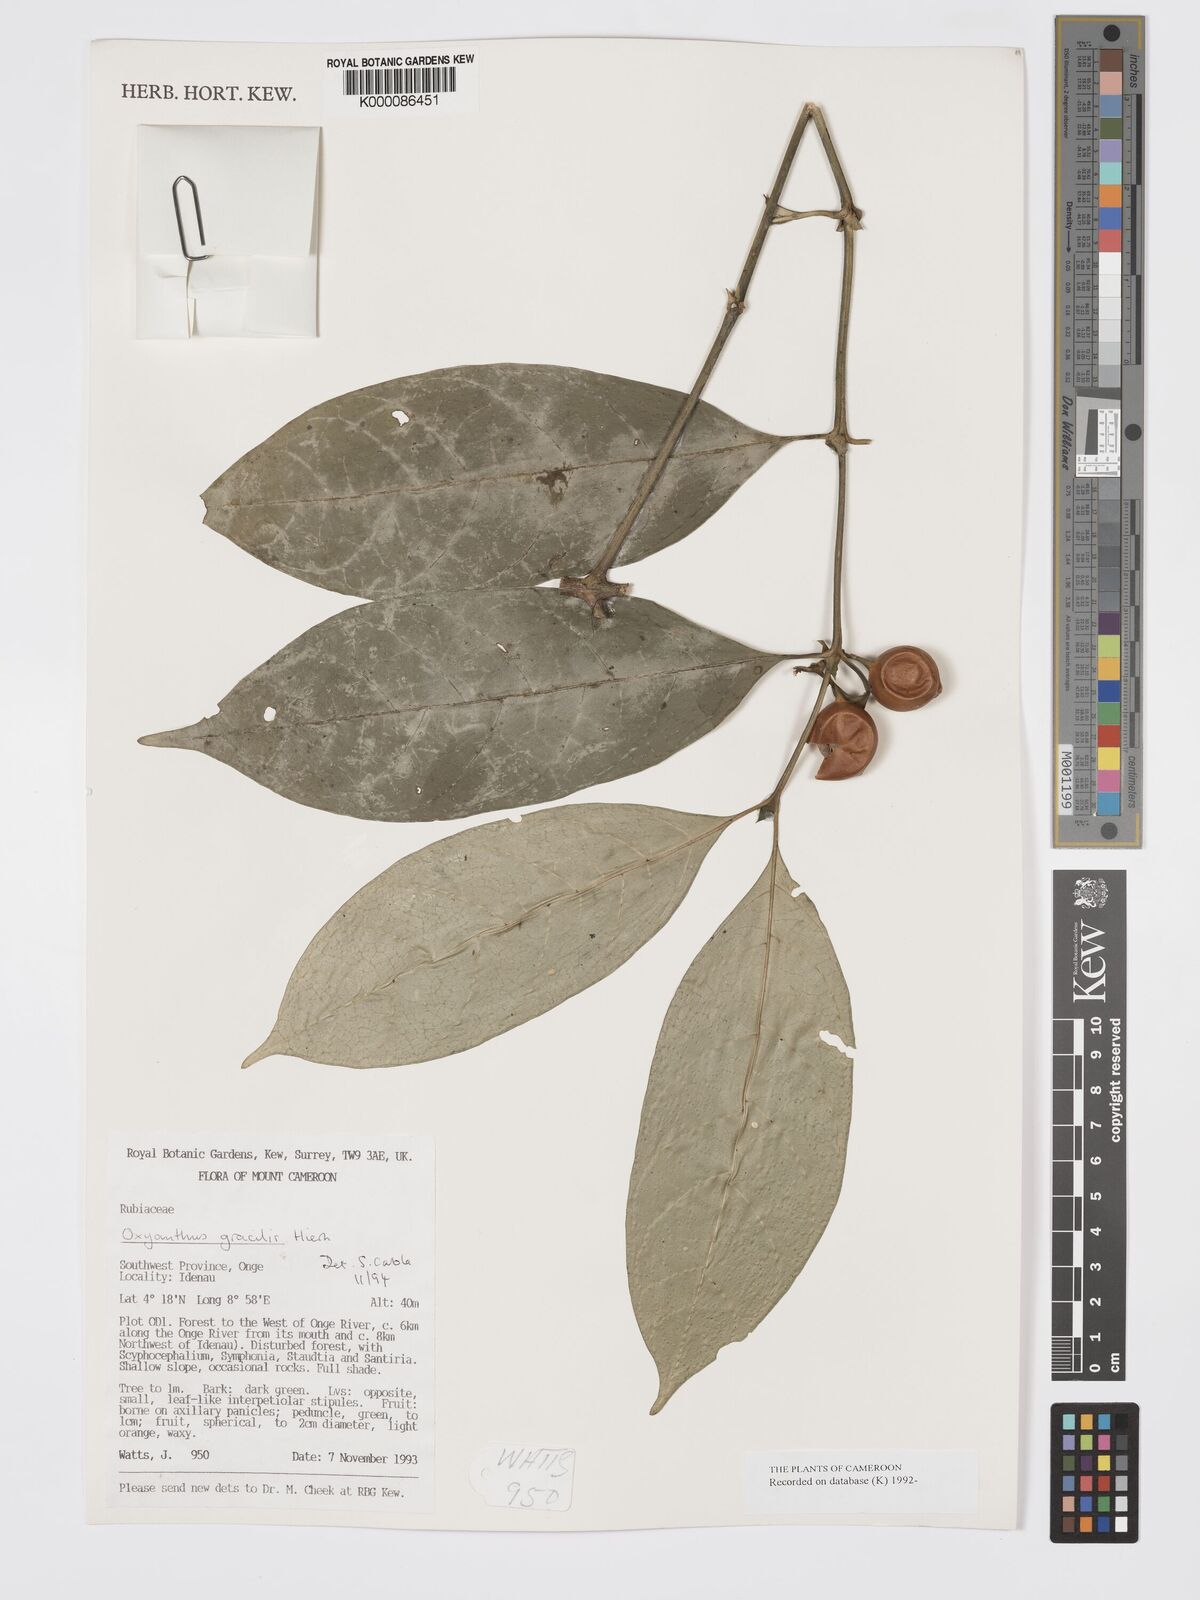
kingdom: Plantae
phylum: Tracheophyta
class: Magnoliopsida
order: Gentianales
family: Rubiaceae
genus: Oxyanthus
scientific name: Oxyanthus gracilis
